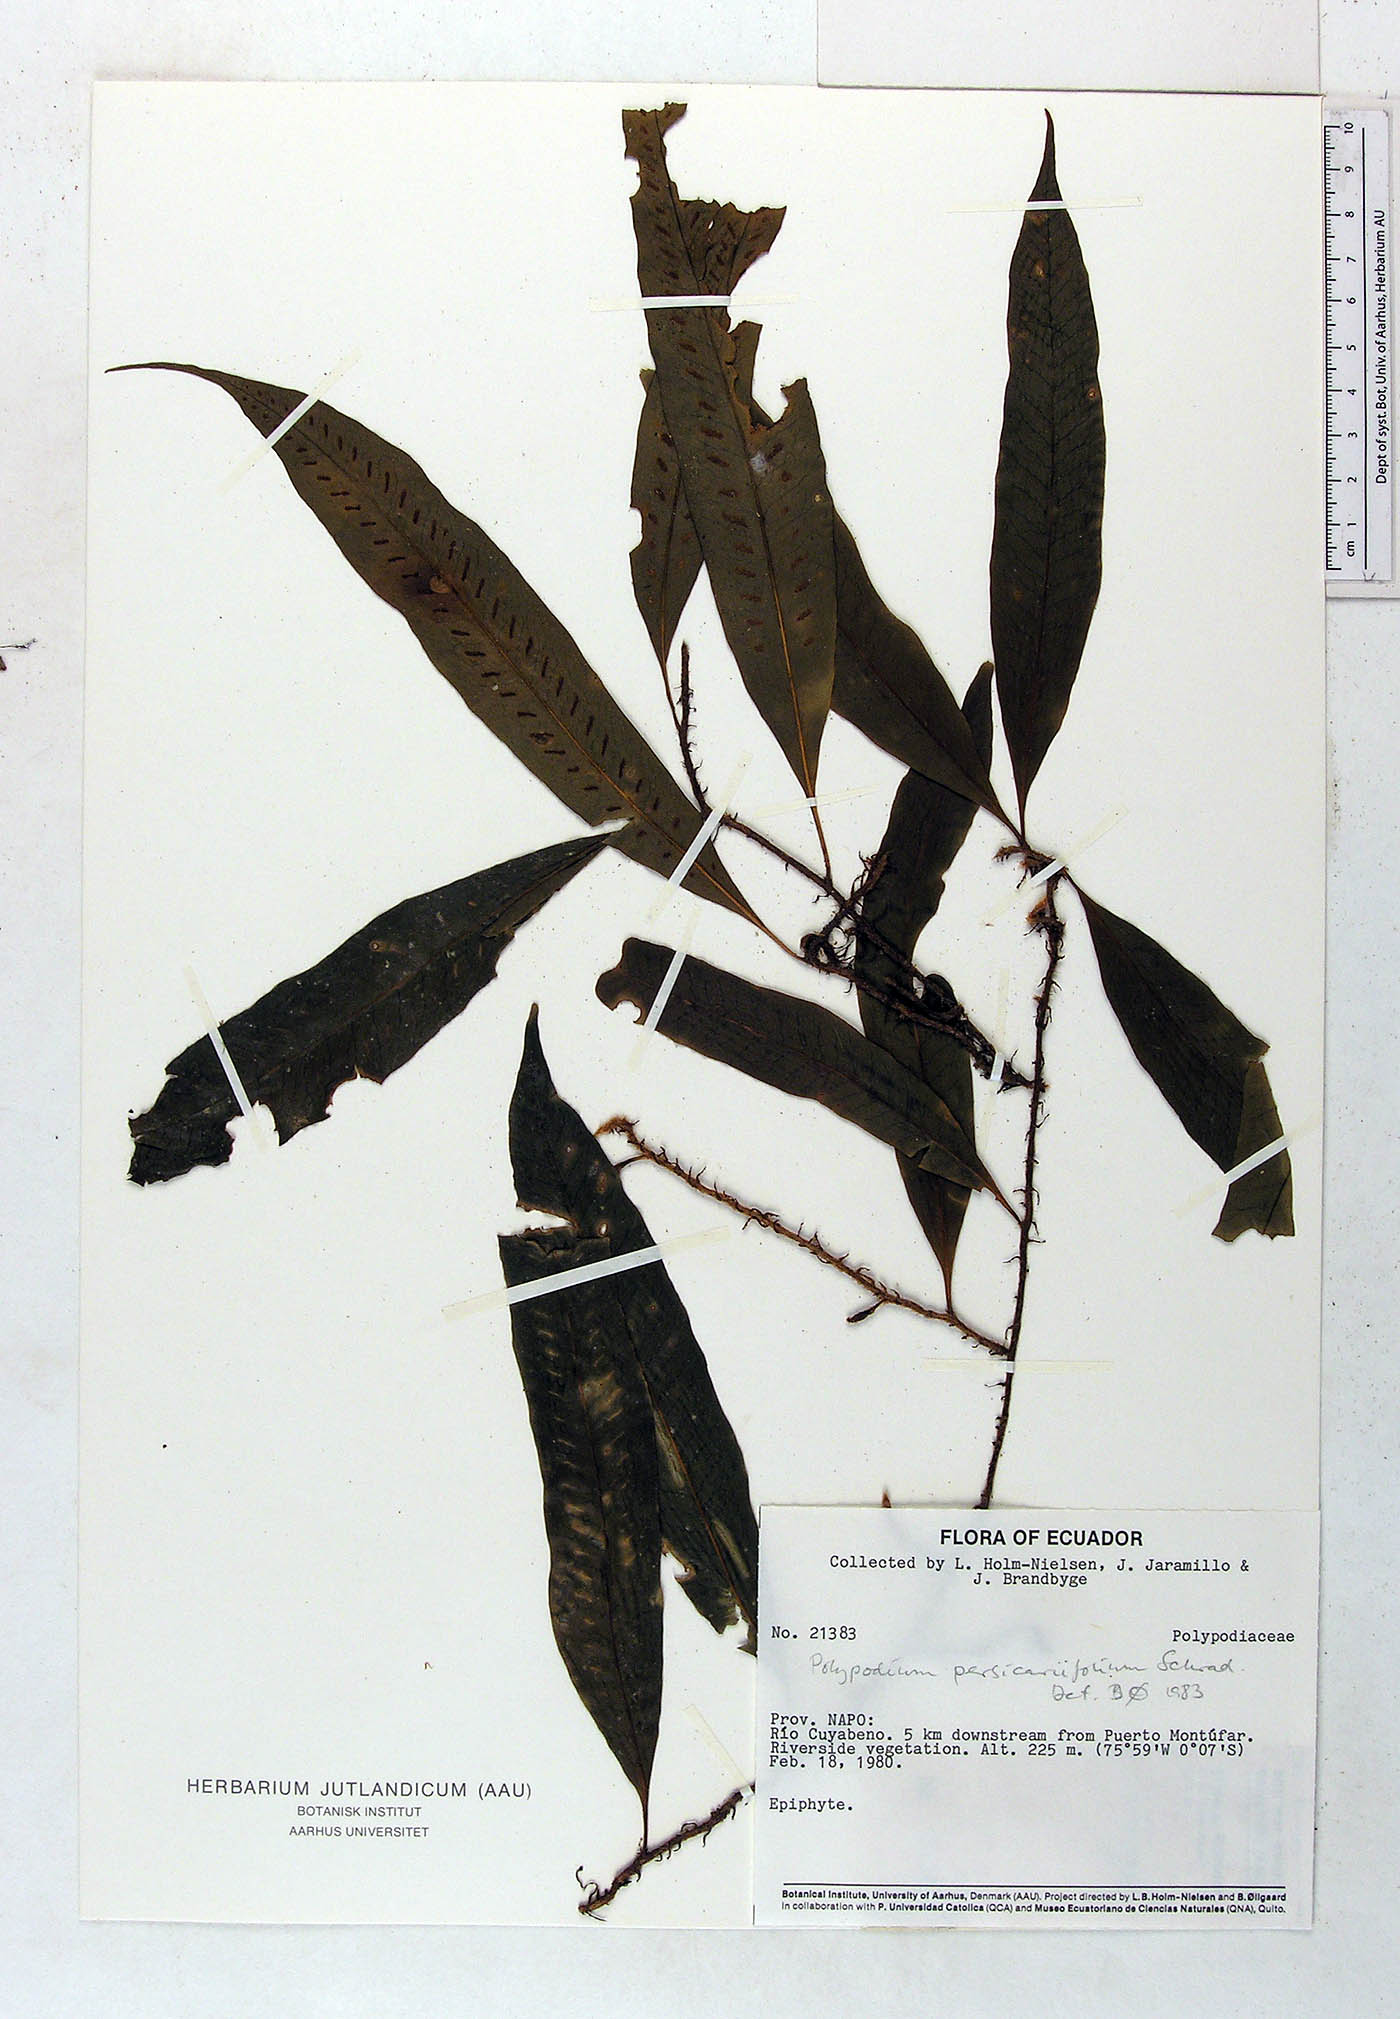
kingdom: Plantae
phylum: Tracheophyta
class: Polypodiopsida
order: Polypodiales
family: Polypodiaceae
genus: Microgramma
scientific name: Microgramma persicariifolia
